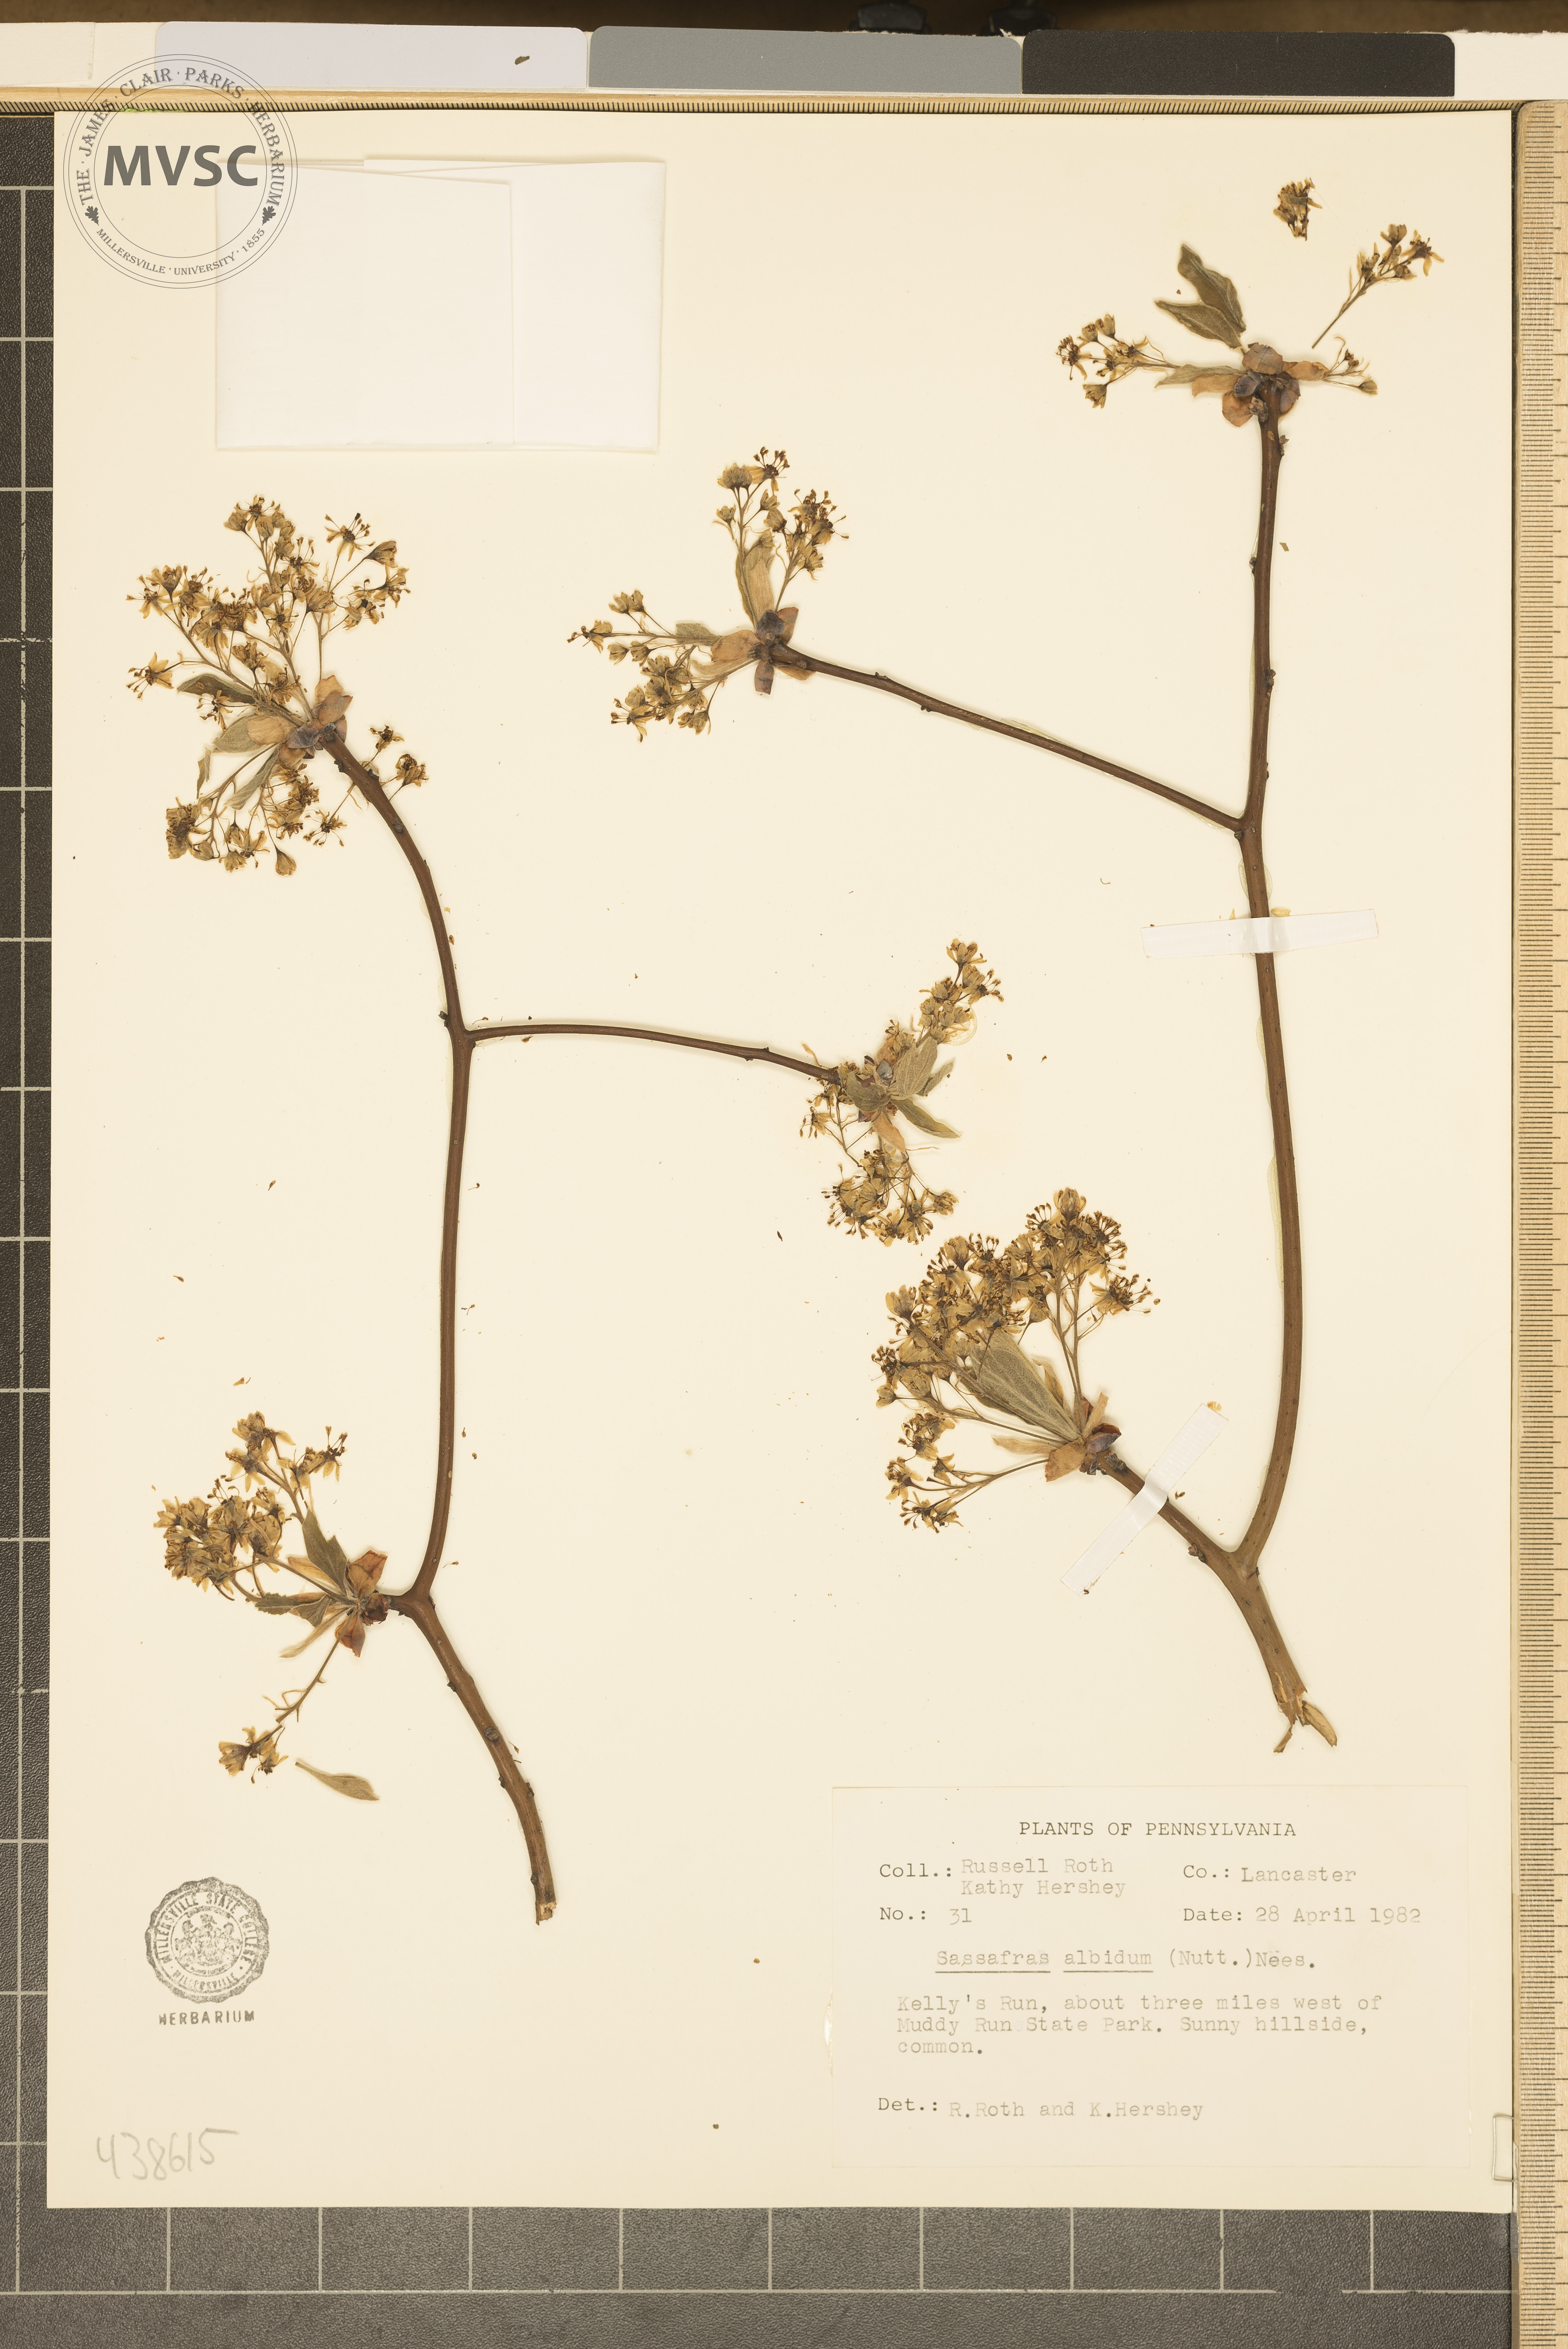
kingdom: Plantae
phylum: Tracheophyta
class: Magnoliopsida
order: Laurales
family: Lauraceae
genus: Sassafras
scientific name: Sassafras albidum
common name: Sassafras
